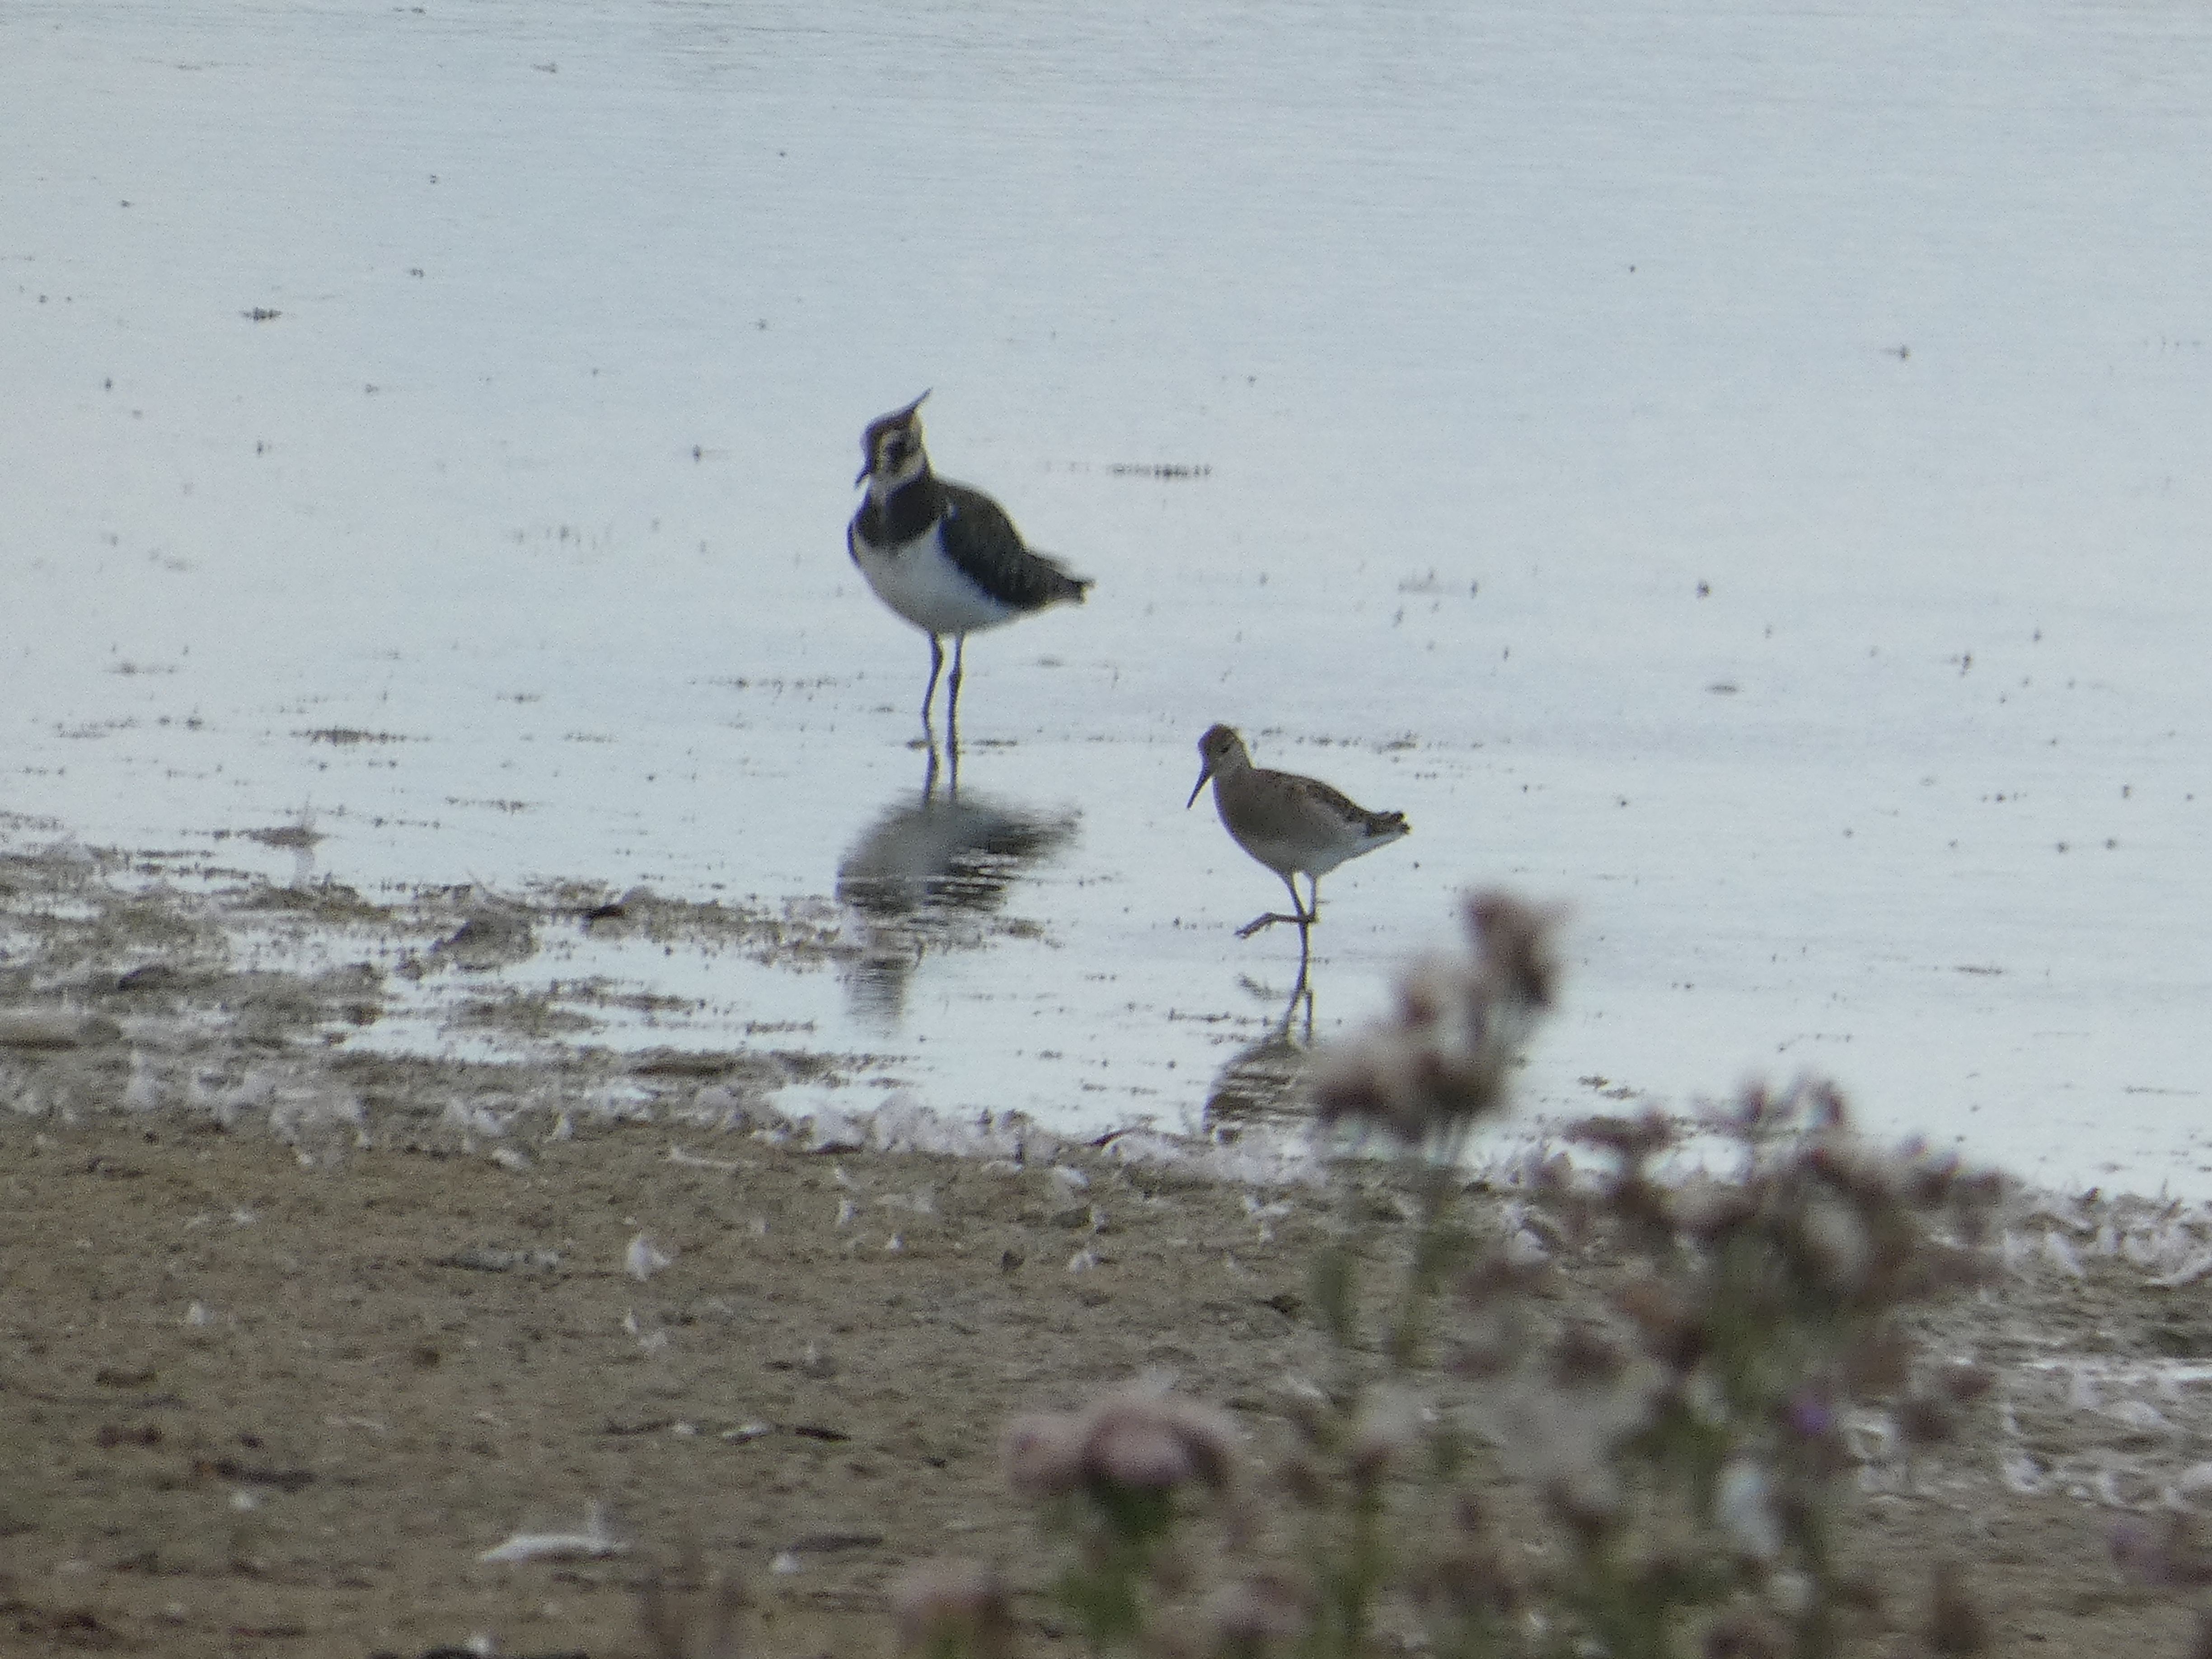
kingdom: Animalia
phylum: Chordata
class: Aves
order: Charadriiformes
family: Scolopacidae
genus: Calidris
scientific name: Calidris pugnax
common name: Brushane
